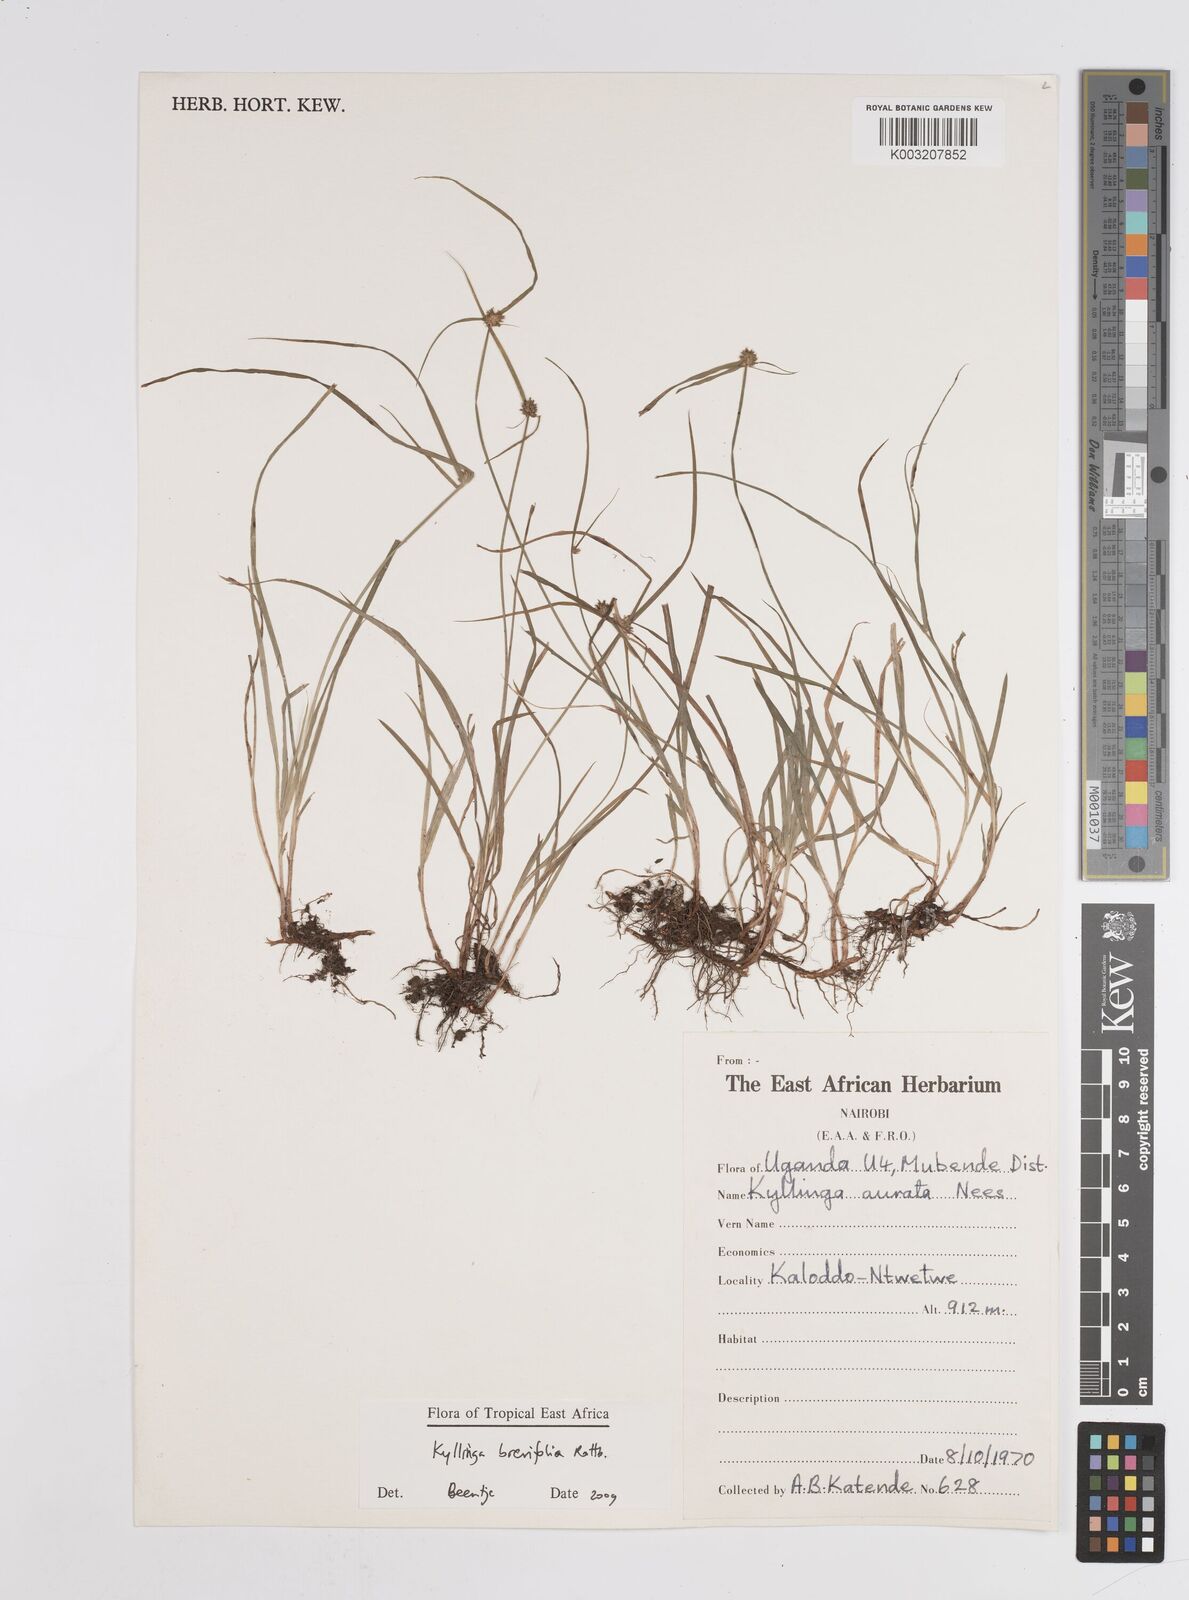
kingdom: Plantae
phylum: Tracheophyta
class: Liliopsida
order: Poales
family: Cyperaceae
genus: Cyperus
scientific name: Cyperus brevifolius
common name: Globe kyllinga
